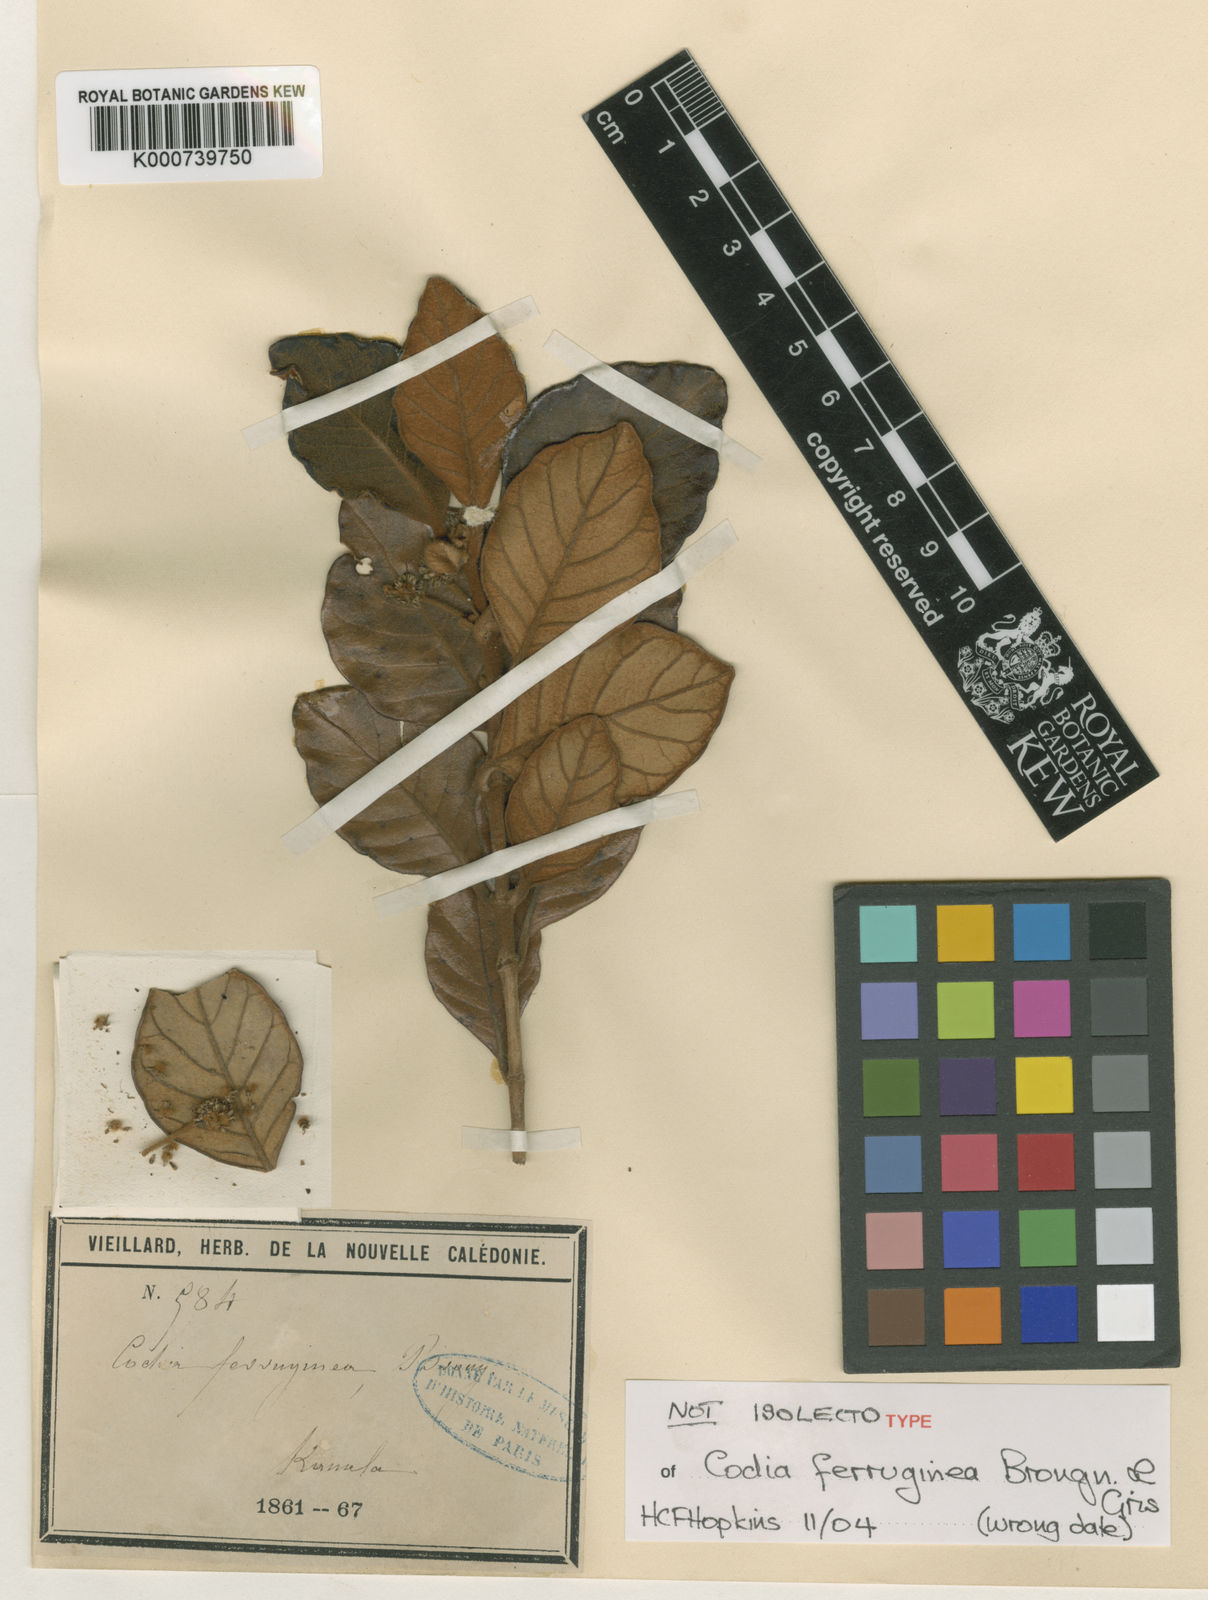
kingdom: Plantae
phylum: Tracheophyta
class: Magnoliopsida
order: Oxalidales
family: Cunoniaceae
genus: Codia
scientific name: Codia ferruginea
